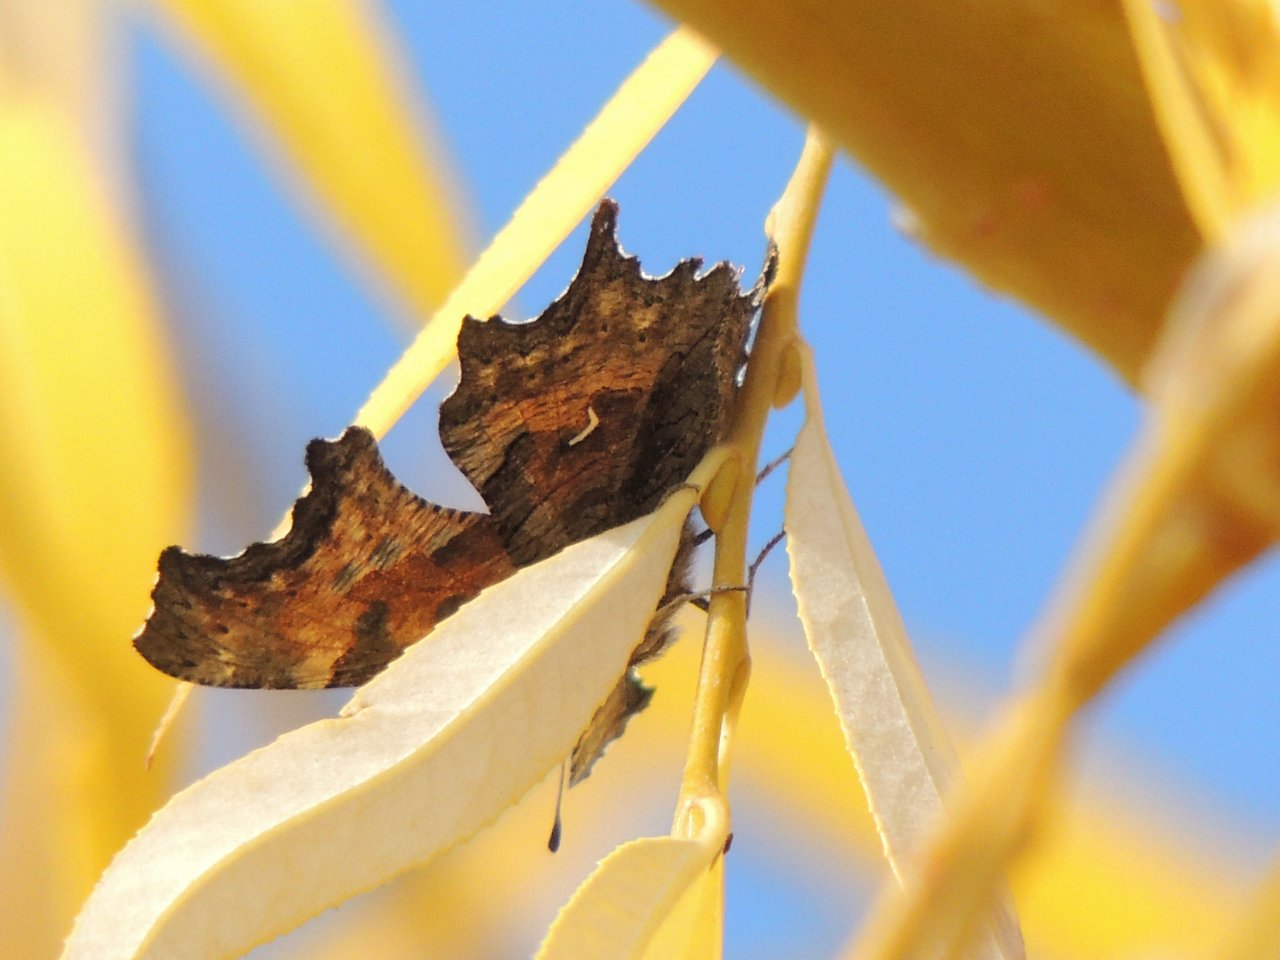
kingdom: Animalia
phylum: Arthropoda
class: Insecta
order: Lepidoptera
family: Nymphalidae
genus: Polygonia
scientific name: Polygonia gracilis
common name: Hoary Comma
